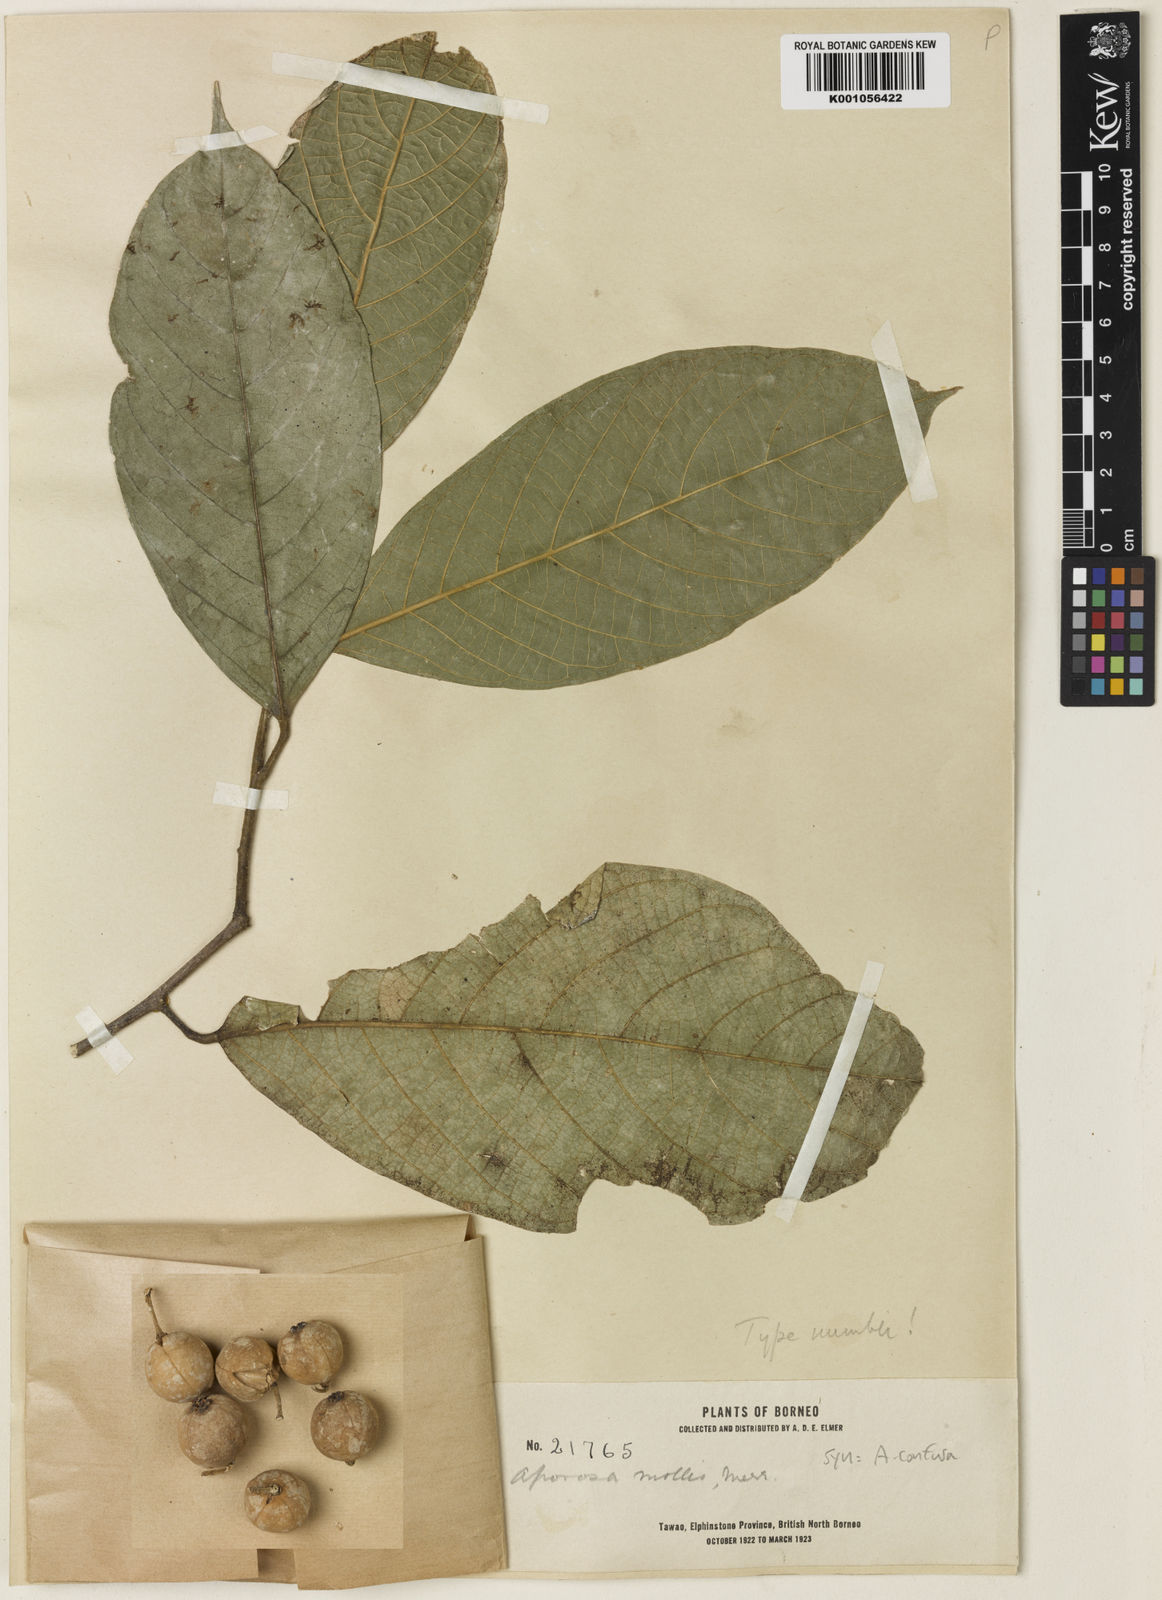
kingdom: Plantae
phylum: Tracheophyta
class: Magnoliopsida
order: Malpighiales
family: Phyllanthaceae
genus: Aporosa
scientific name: Aporosa confusa
